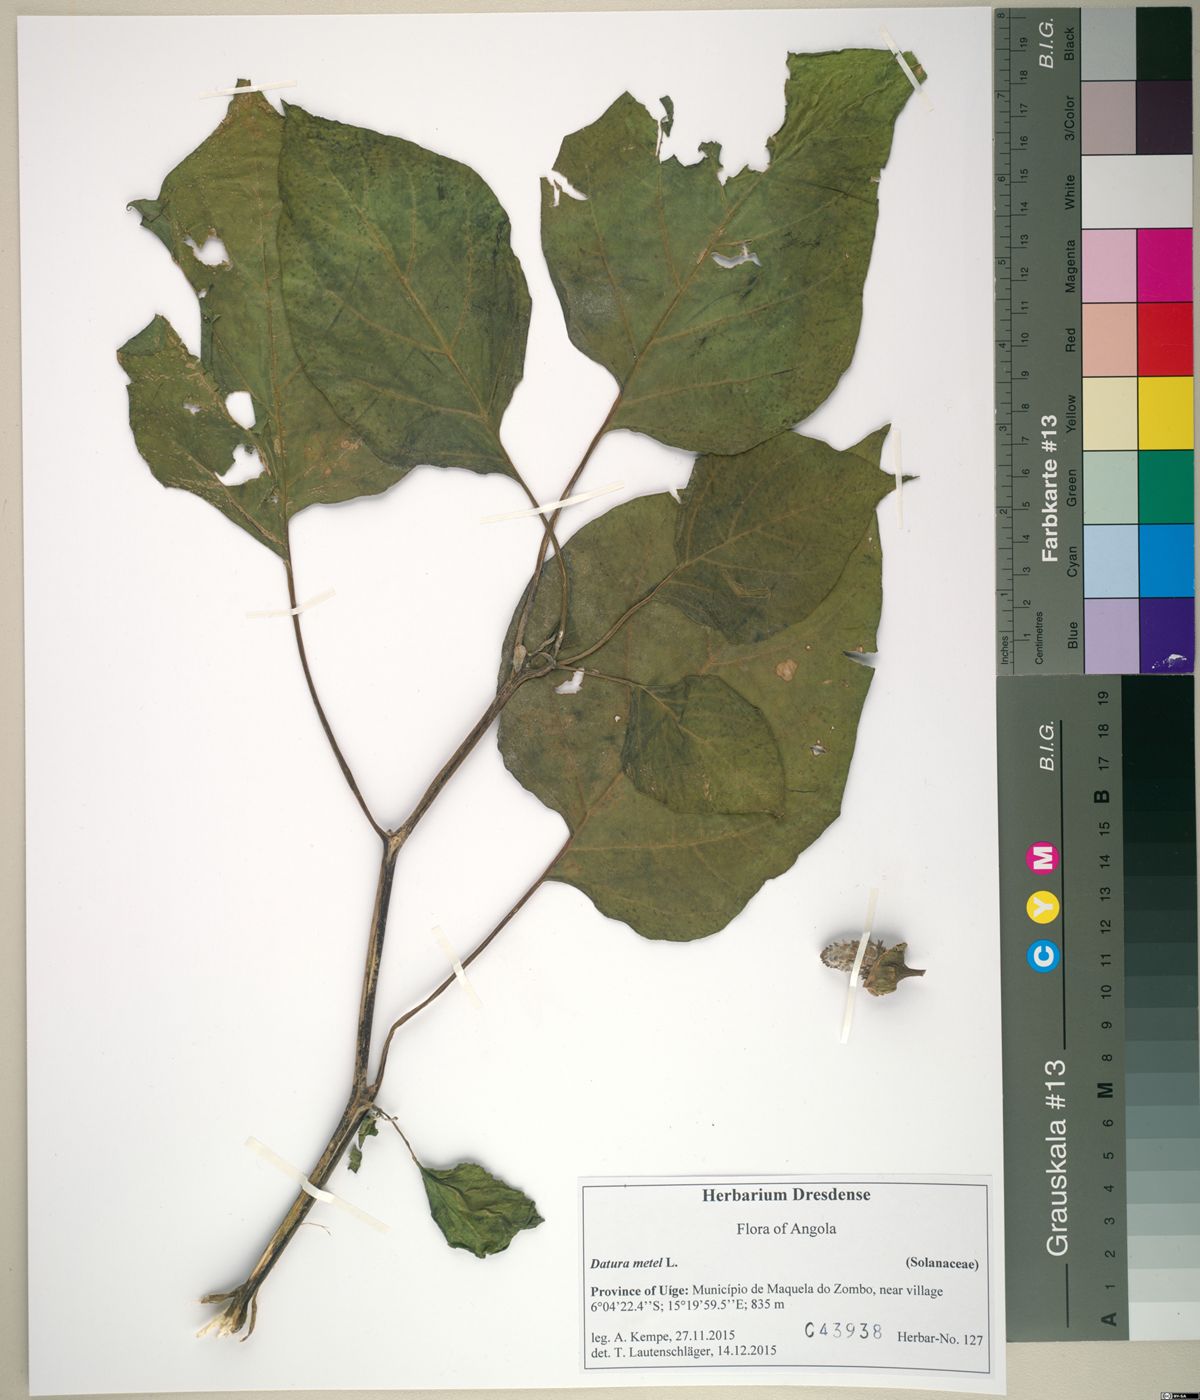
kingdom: Plantae
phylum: Tracheophyta
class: Magnoliopsida
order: Solanales
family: Solanaceae
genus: Datura
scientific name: Datura metel
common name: Jimsonweed
